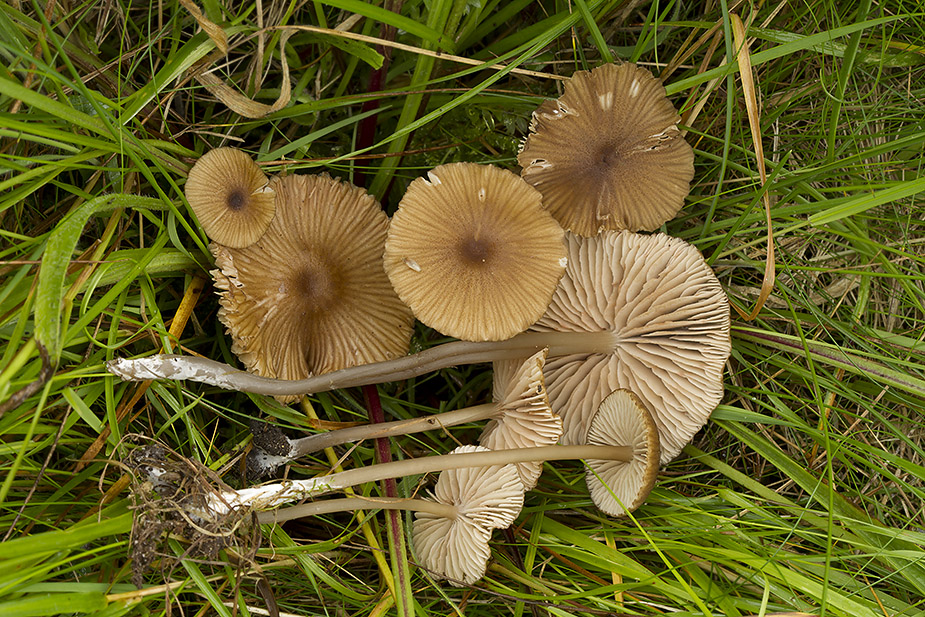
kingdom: Fungi
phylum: Basidiomycota
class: Agaricomycetes
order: Agaricales
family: Entolomataceae
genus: Entoloma
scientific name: Entoloma longistriatum
